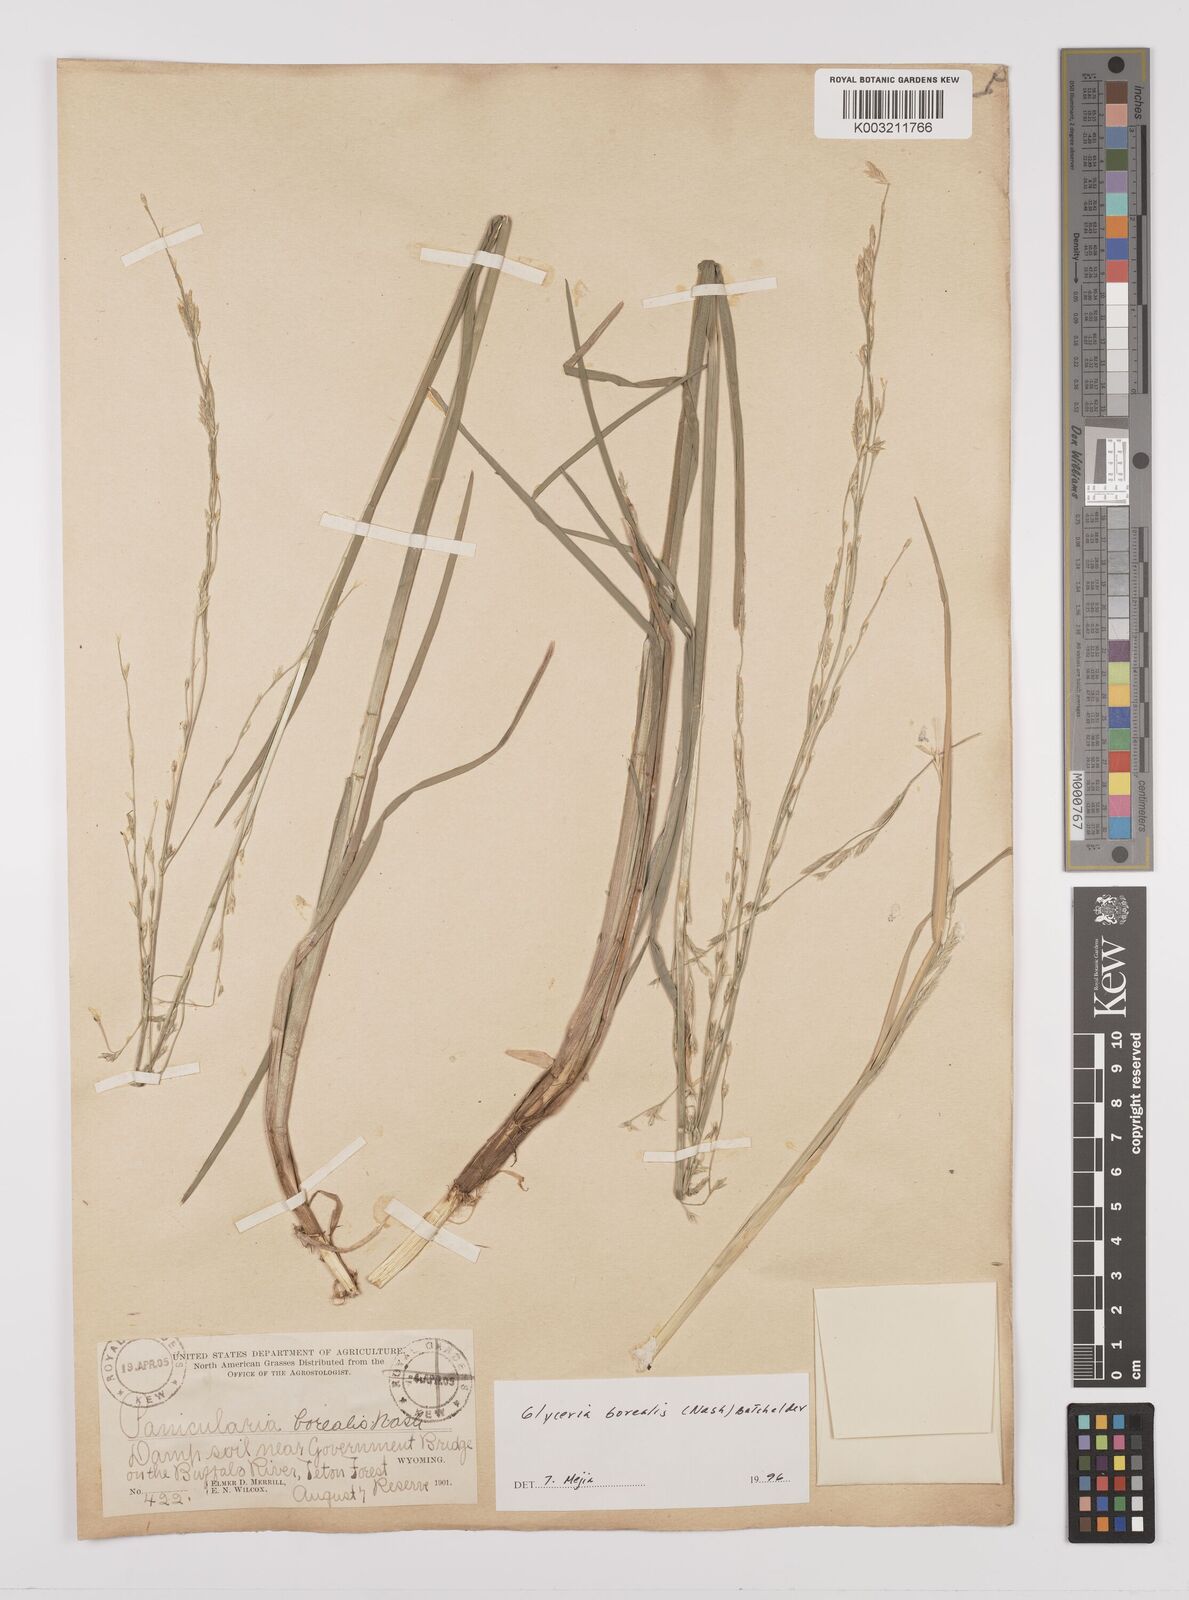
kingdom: Plantae
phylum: Tracheophyta
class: Liliopsida
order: Poales
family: Poaceae
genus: Glyceria
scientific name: Glyceria borealis
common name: Boreal glyceria
